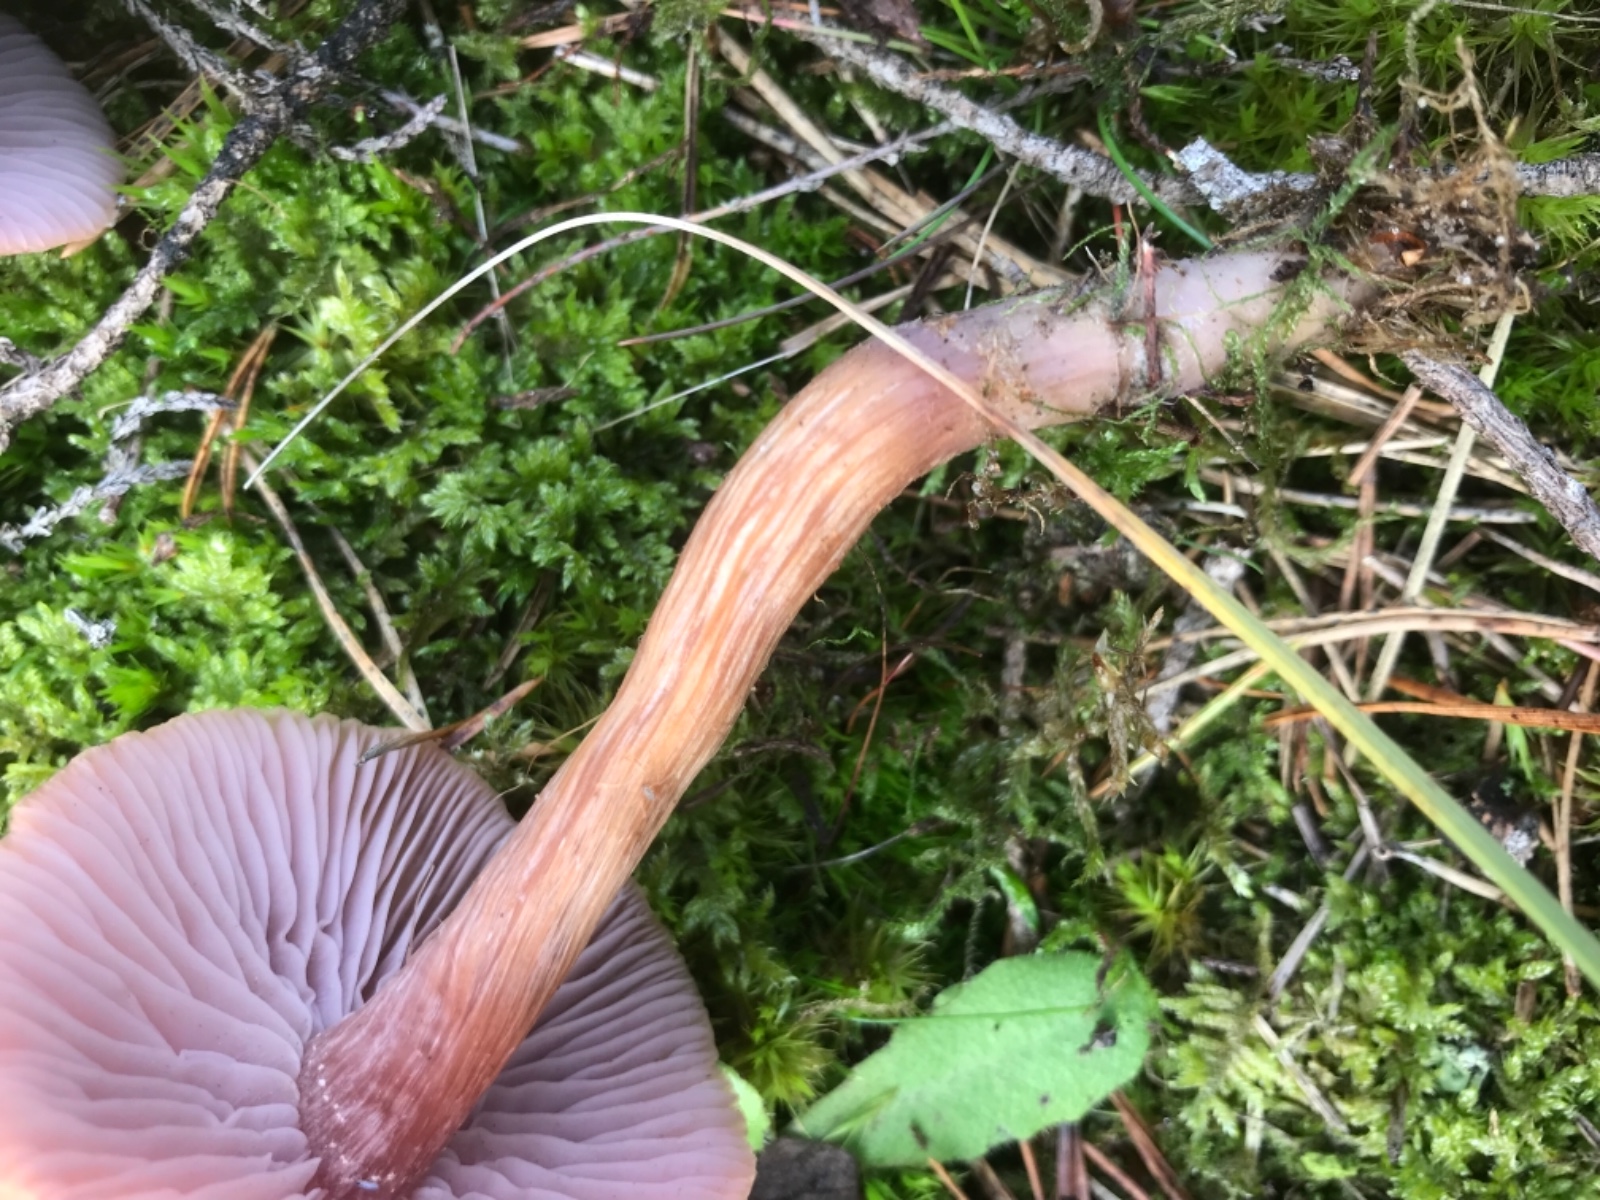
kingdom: Fungi
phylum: Basidiomycota
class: Agaricomycetes
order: Agaricales
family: Hydnangiaceae
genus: Laccaria
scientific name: Laccaria bicolor
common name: tvefarvet ametysthat
